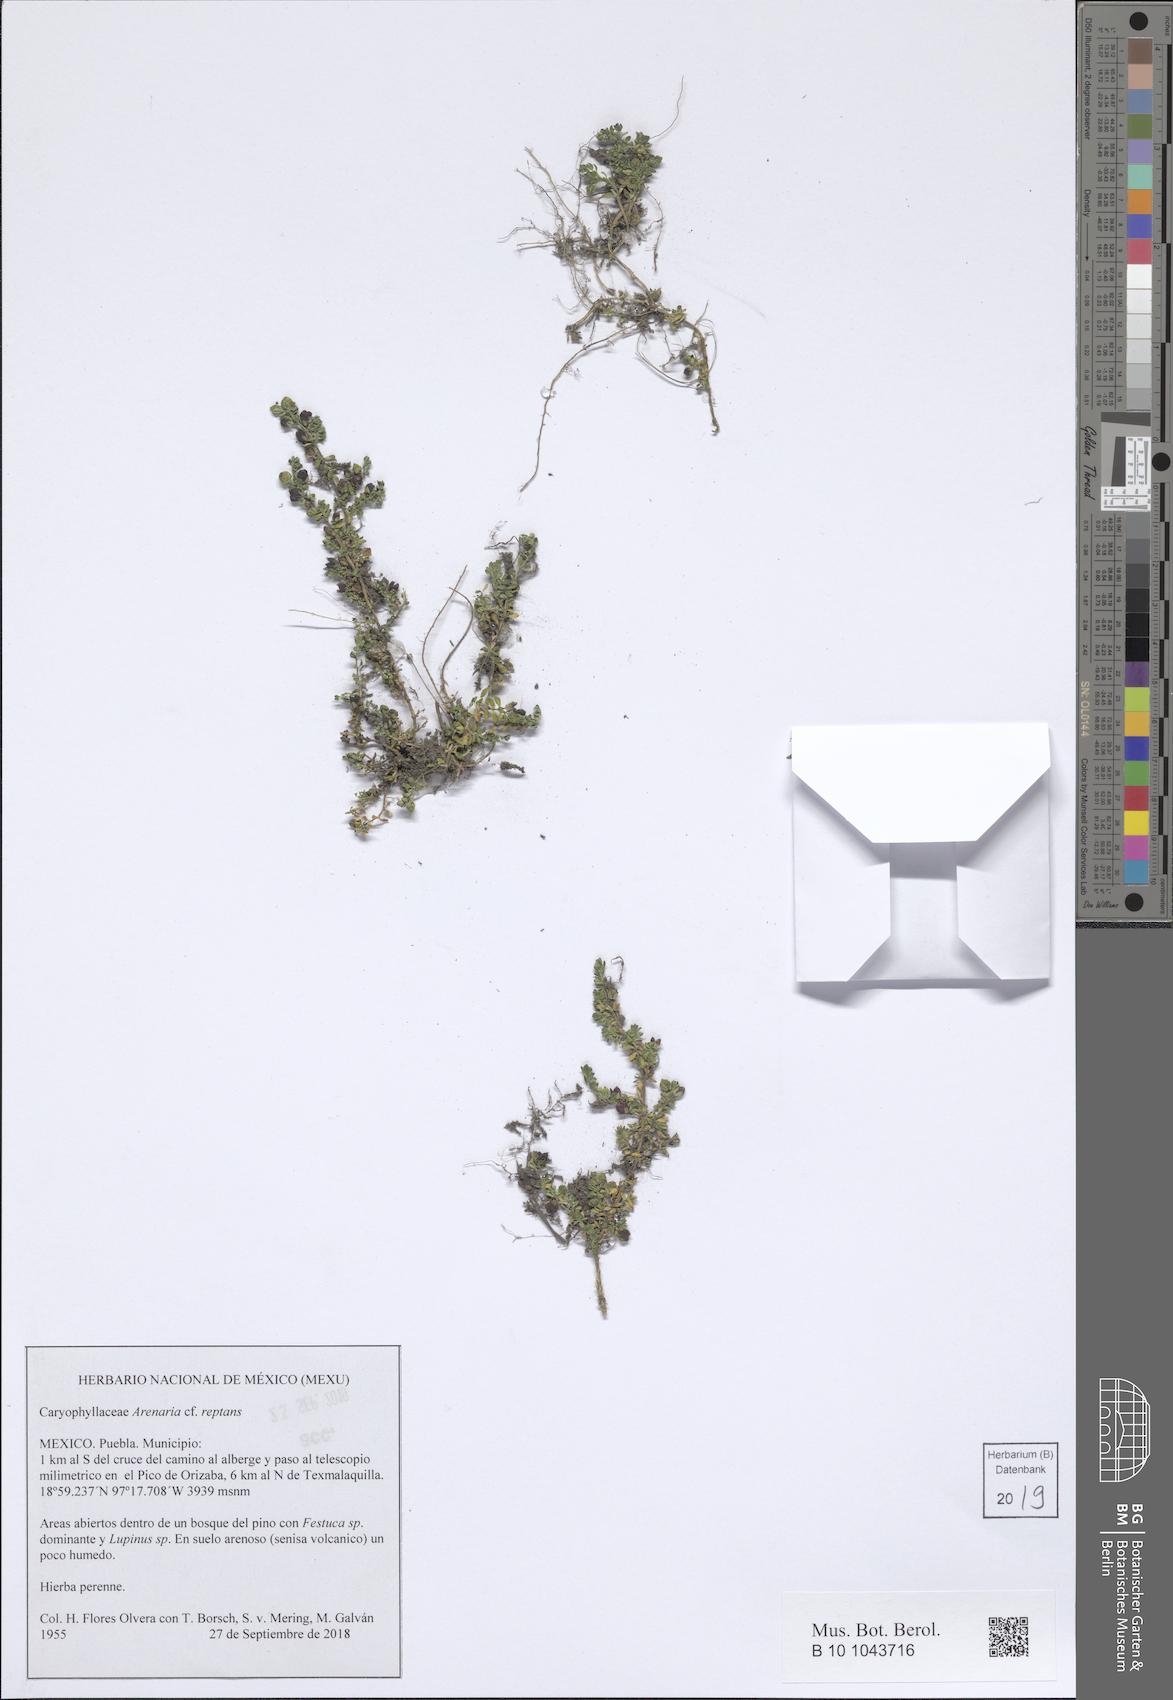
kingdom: Plantae
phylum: Tracheophyta
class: Magnoliopsida
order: Caryophyllales
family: Caryophyllaceae
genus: Arenaria
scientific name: Arenaria reptans
